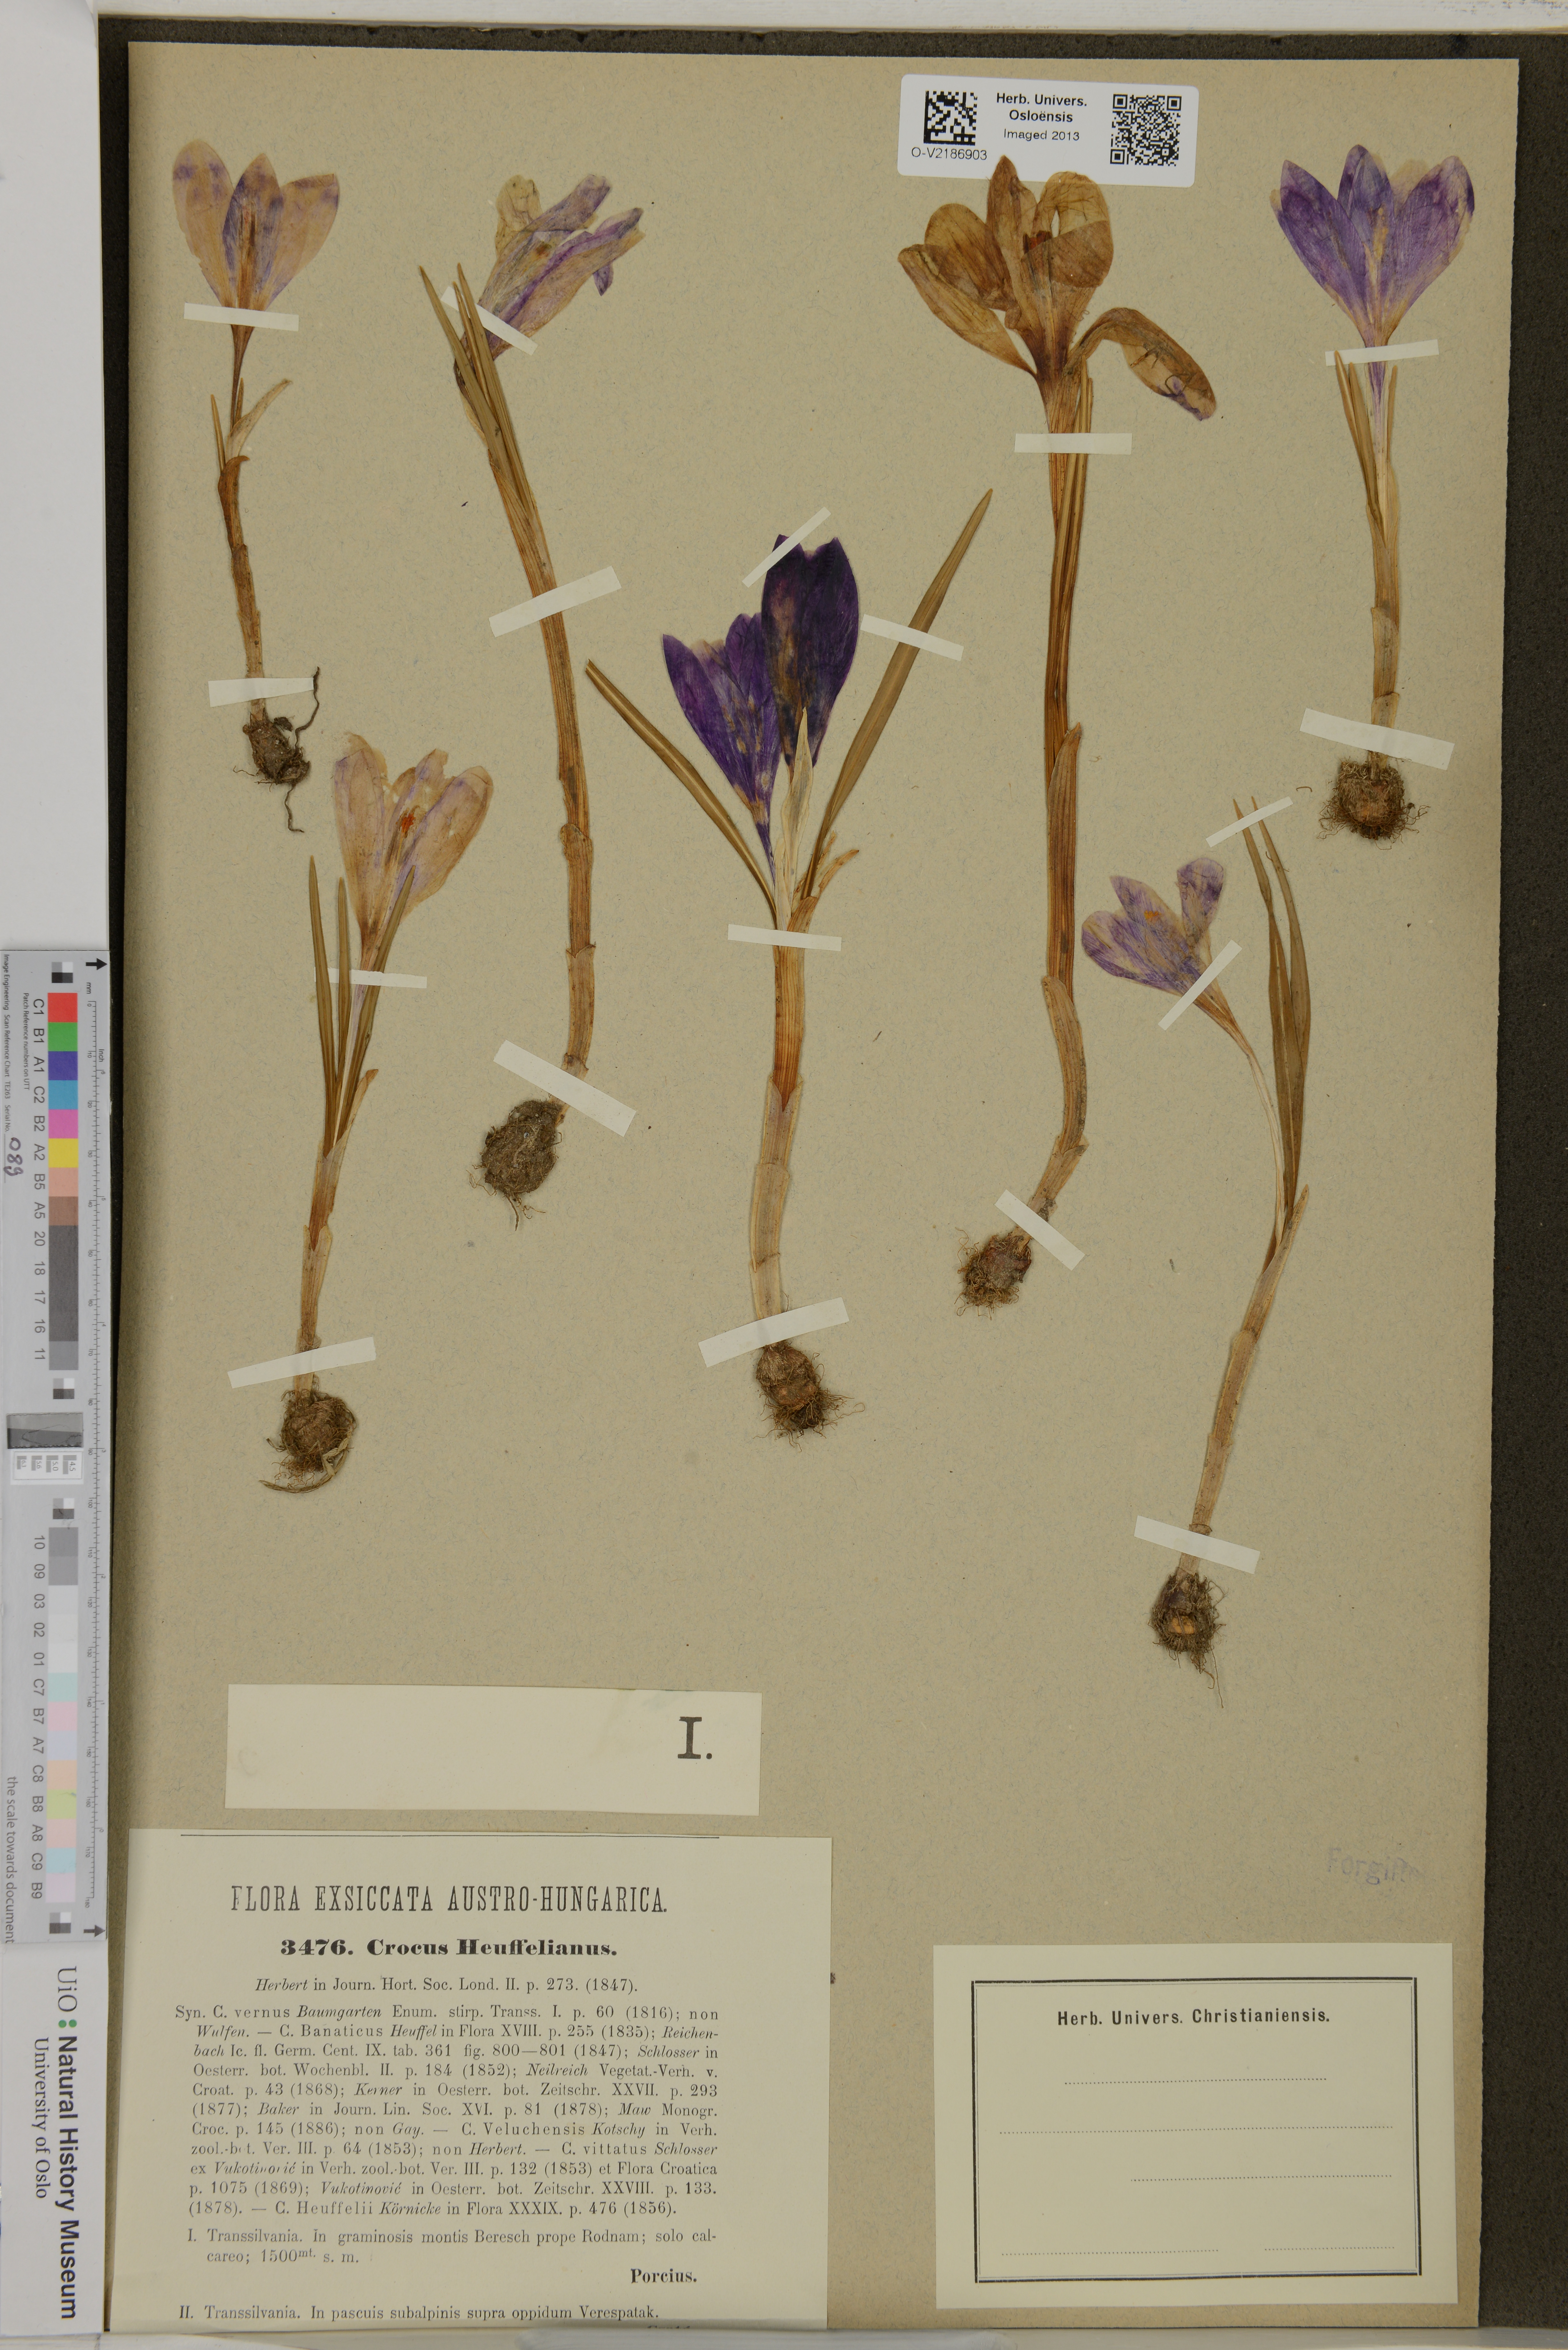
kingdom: Plantae
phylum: Tracheophyta
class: Liliopsida
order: Asparagales
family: Iridaceae
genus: Crocus
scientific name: Crocus heuffelianus
